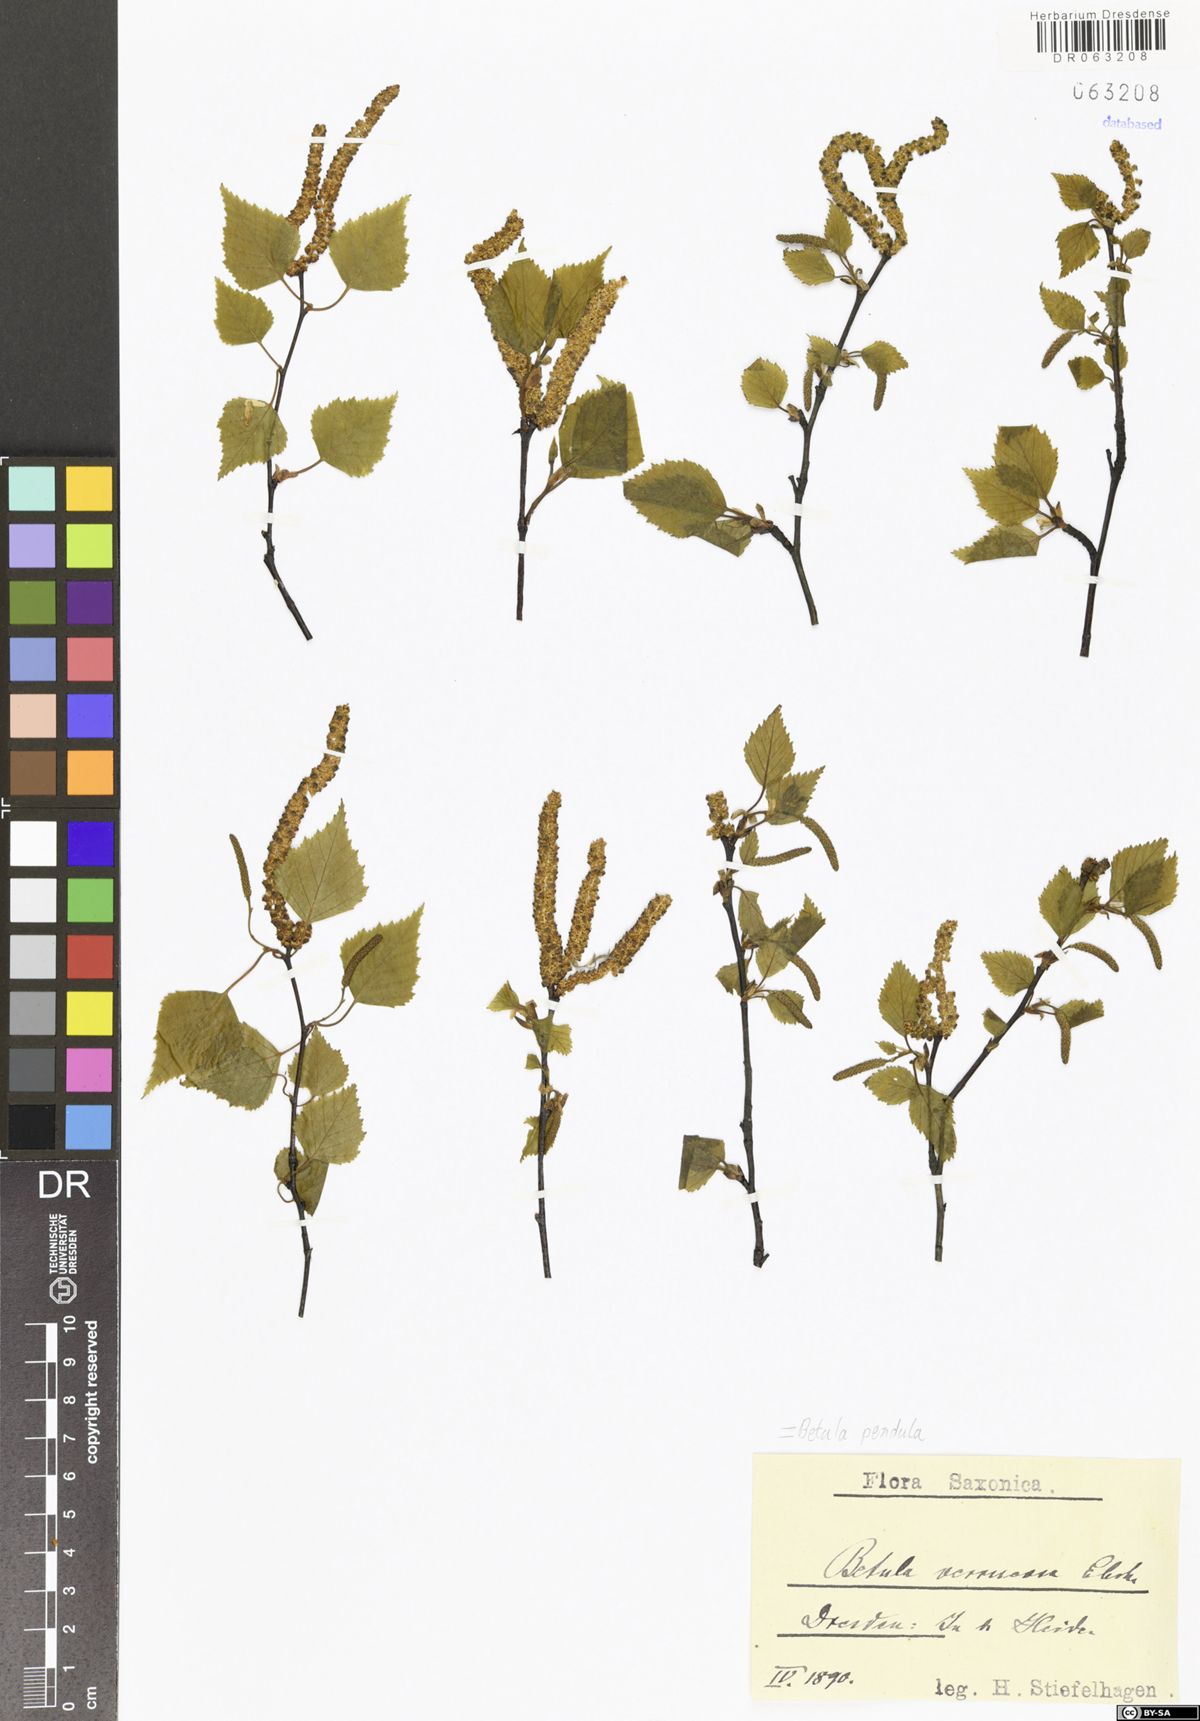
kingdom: Plantae
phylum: Tracheophyta
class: Magnoliopsida
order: Fagales
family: Betulaceae
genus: Betula
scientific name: Betula pendula
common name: Silver birch
